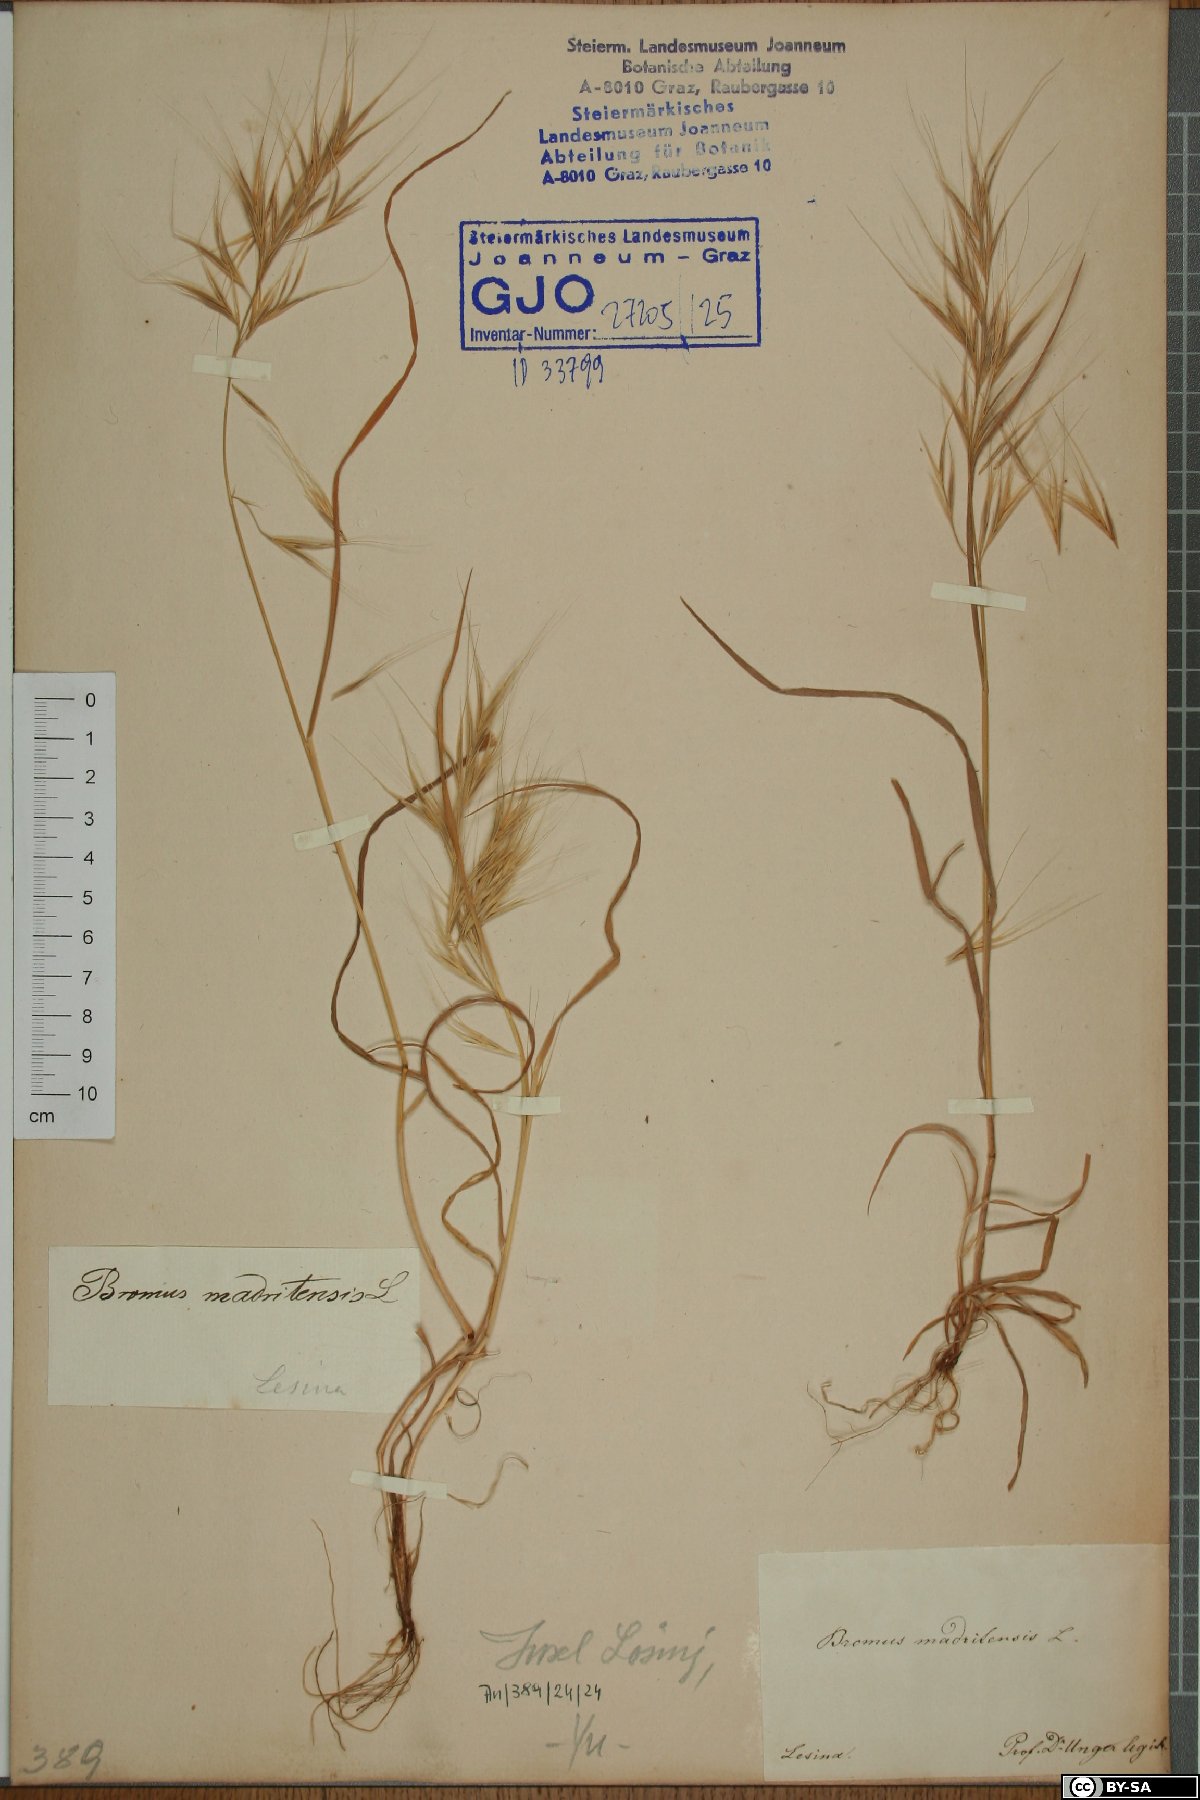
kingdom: Plantae
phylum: Tracheophyta
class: Liliopsida
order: Poales
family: Poaceae
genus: Bromus
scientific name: Bromus madritensis
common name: Compact brome
